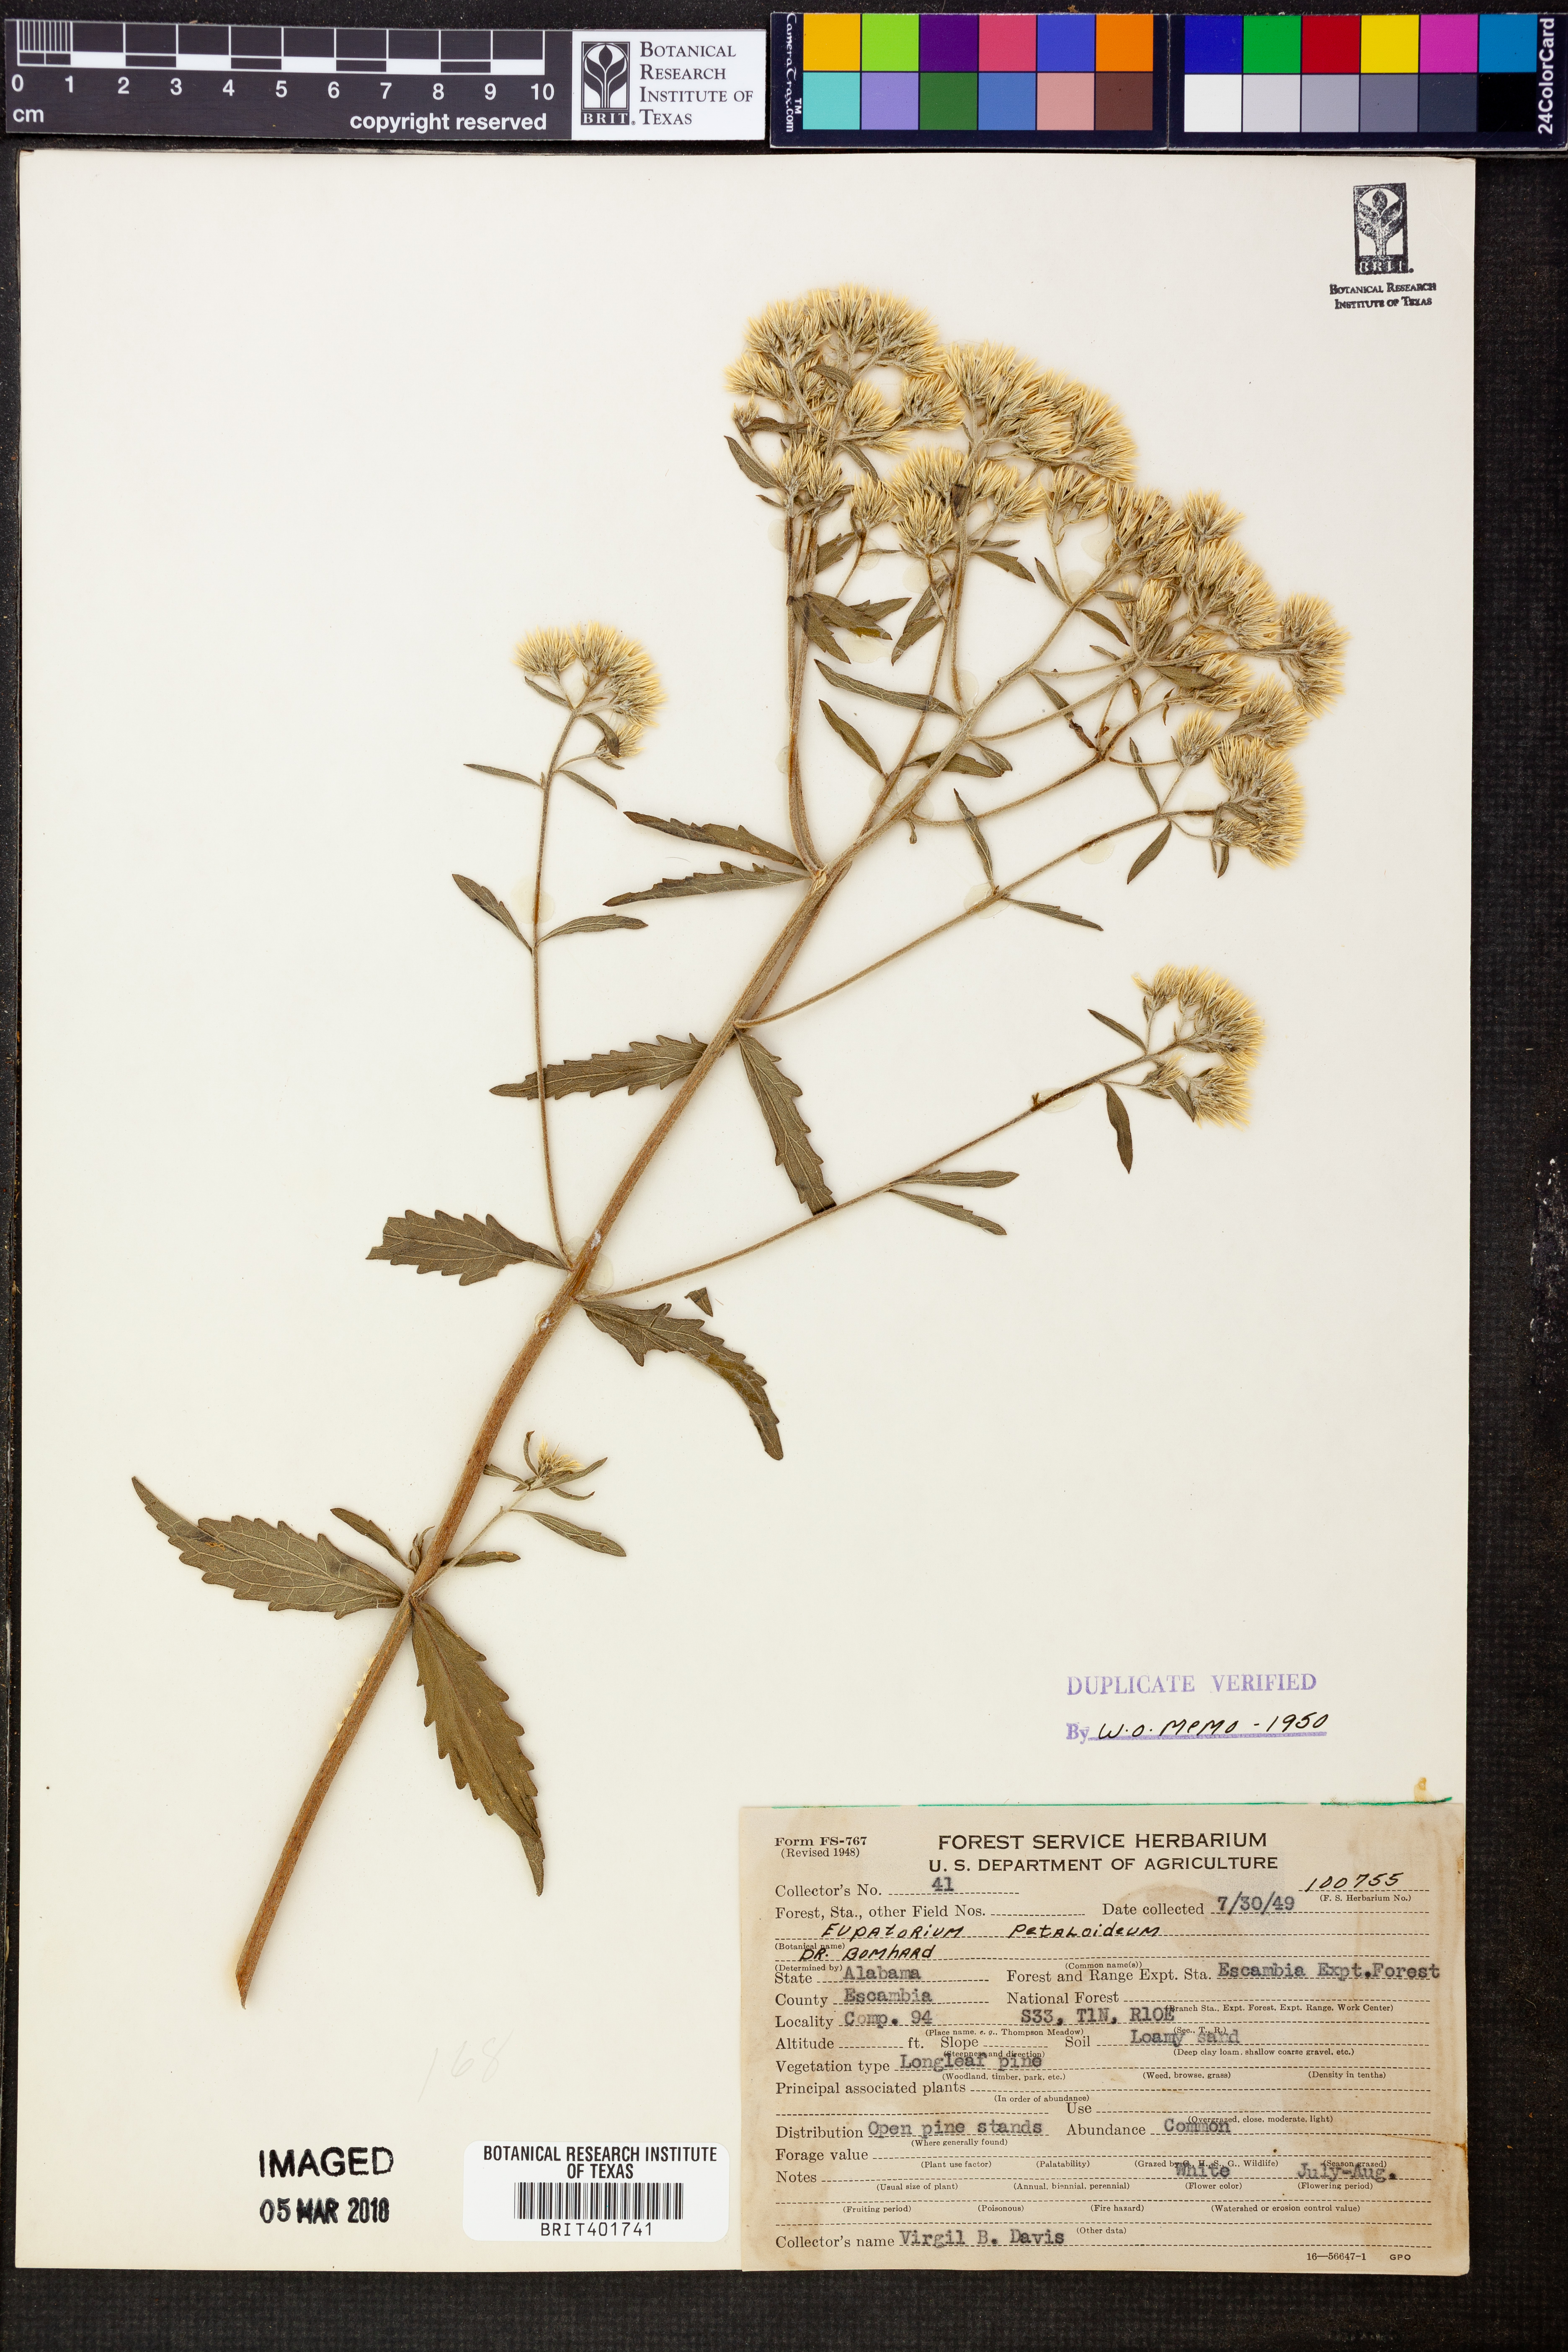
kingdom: Plantae
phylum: Tracheophyta
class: Magnoliopsida
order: Asterales
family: Asteraceae
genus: Eupatorium
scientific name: Eupatorium petaloideum
